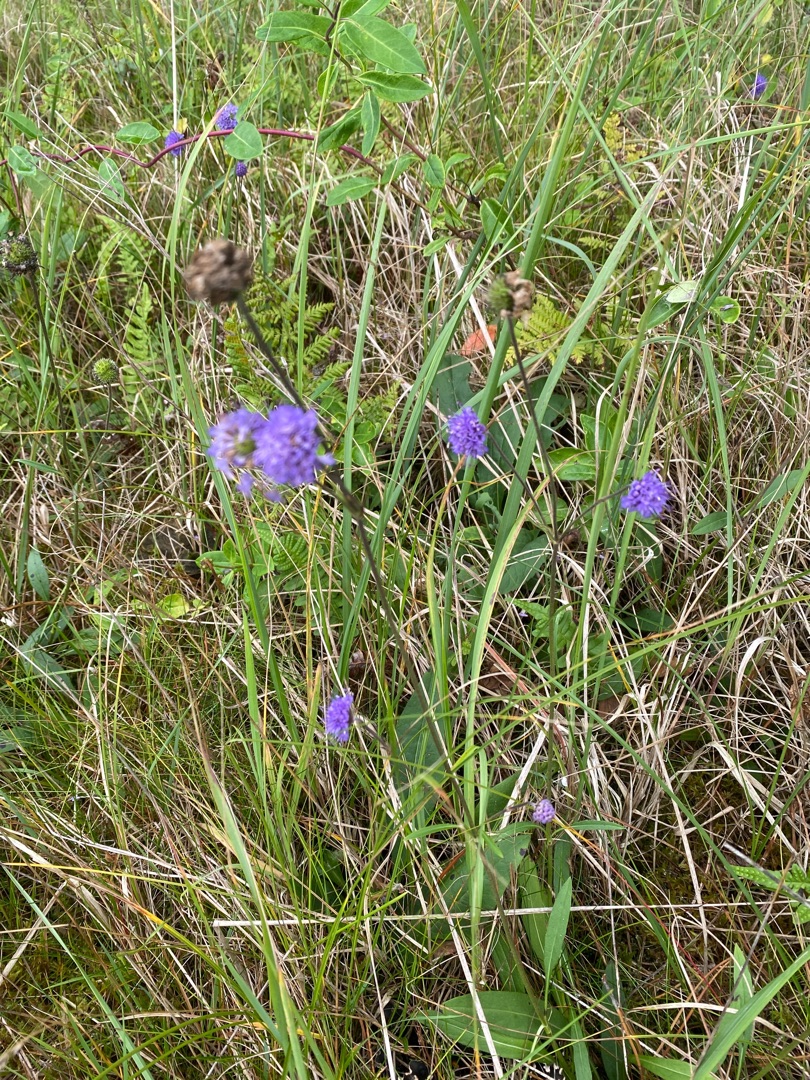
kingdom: Plantae
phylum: Tracheophyta
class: Magnoliopsida
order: Dipsacales
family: Caprifoliaceae
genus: Succisa
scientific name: Succisa pratensis
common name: Djævelsbid
